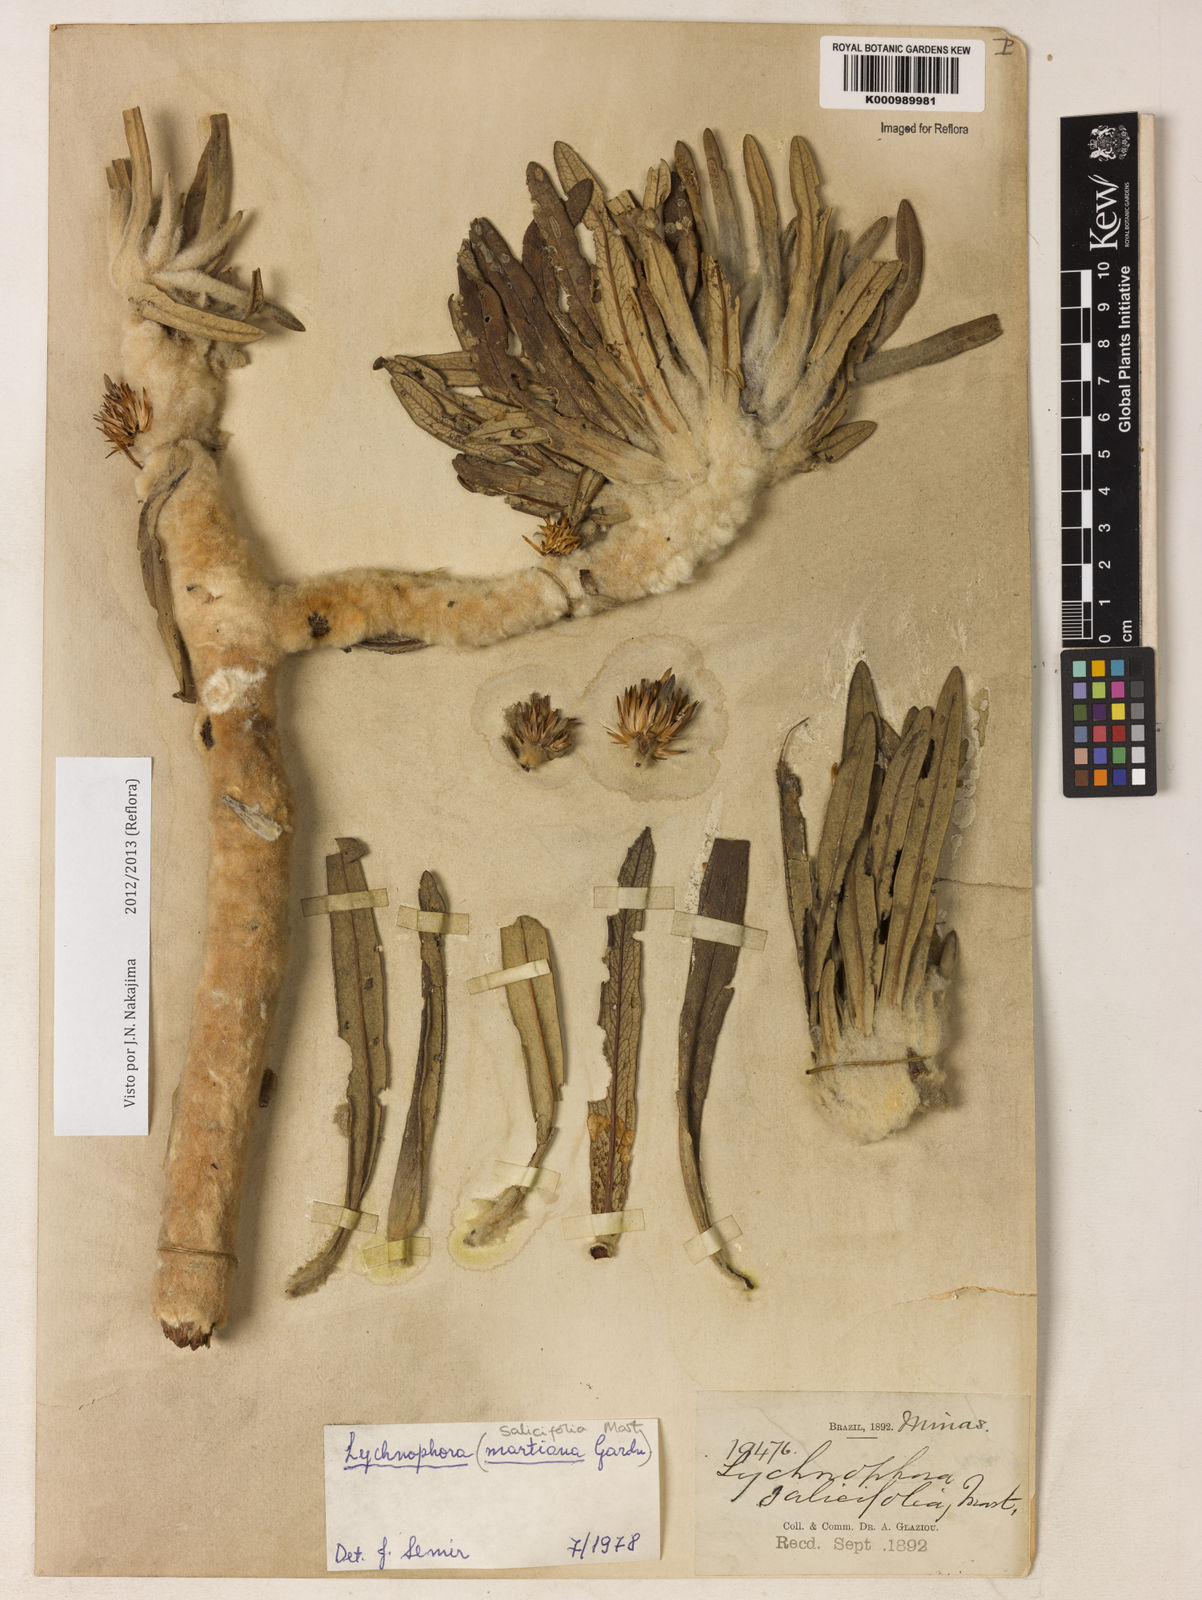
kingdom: Plantae
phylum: Tracheophyta
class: Magnoliopsida
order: Asterales
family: Asteraceae
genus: Lychnophora
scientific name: Lychnophora salicifolia
